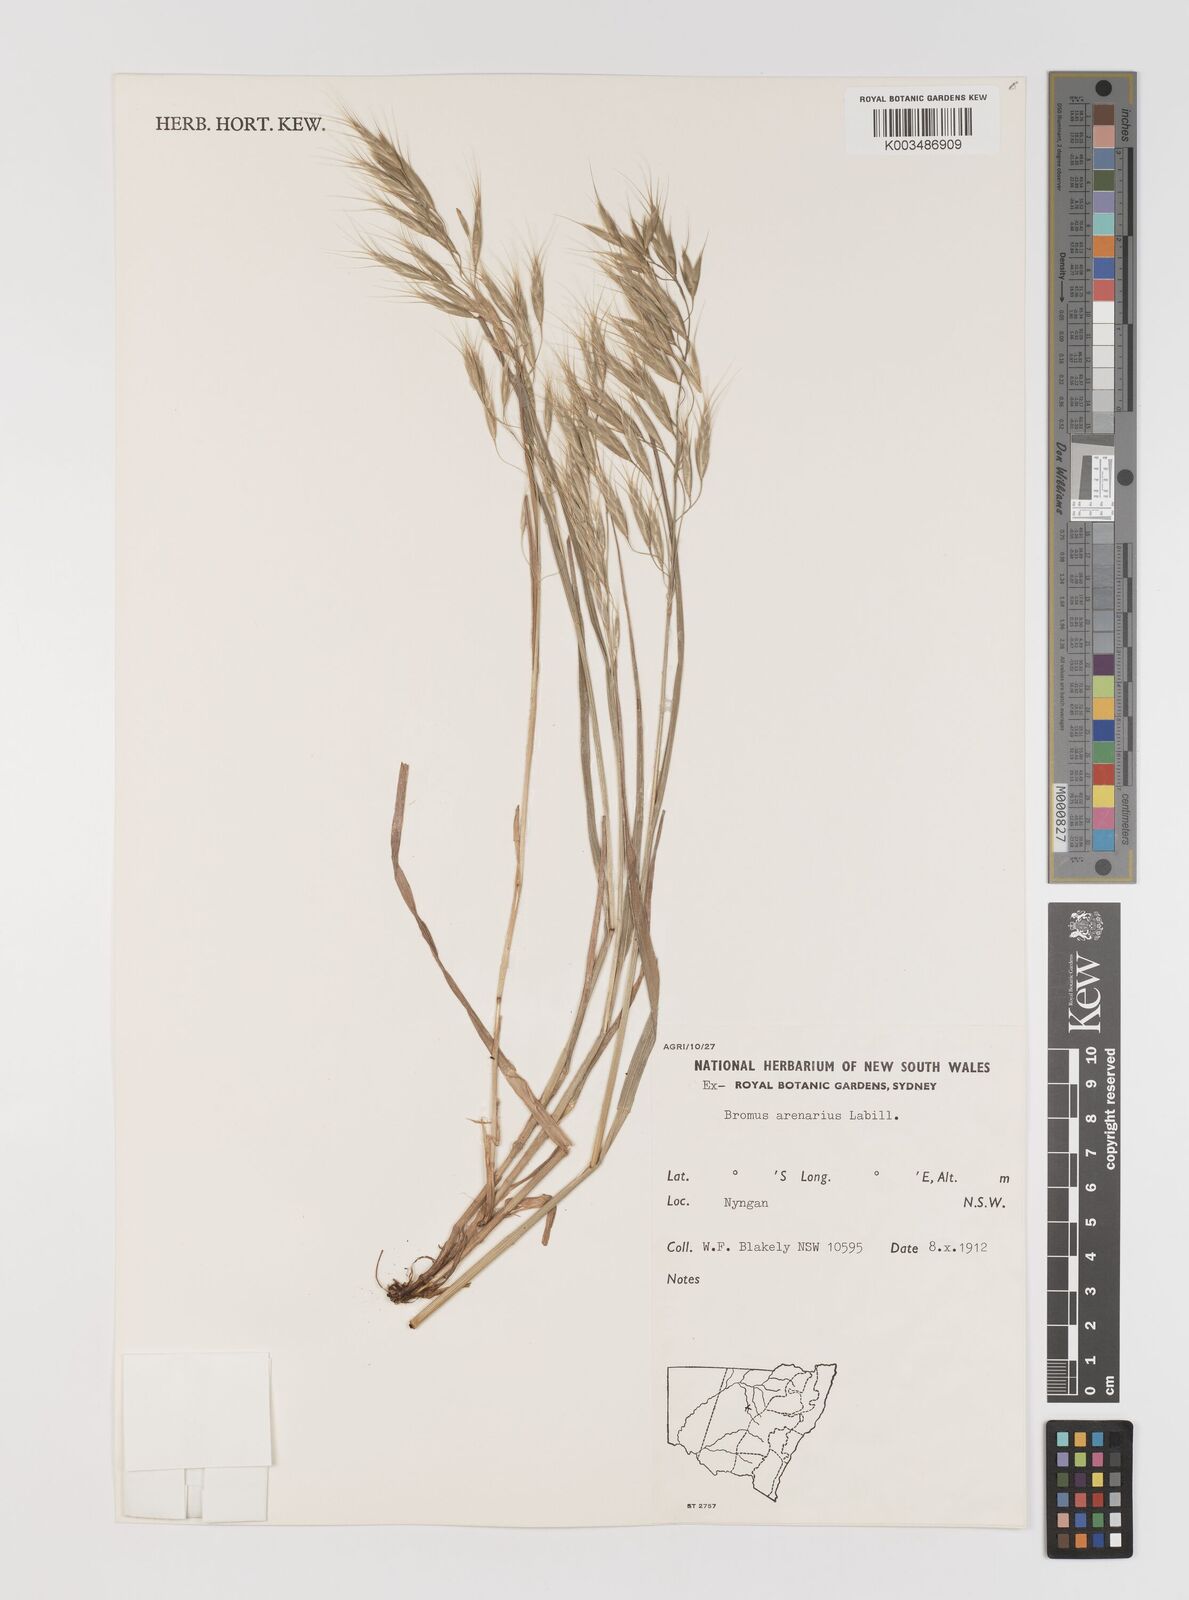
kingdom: Plantae
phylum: Tracheophyta
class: Liliopsida
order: Poales
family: Poaceae
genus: Bromus
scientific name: Bromus arenarius
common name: Australian brome
